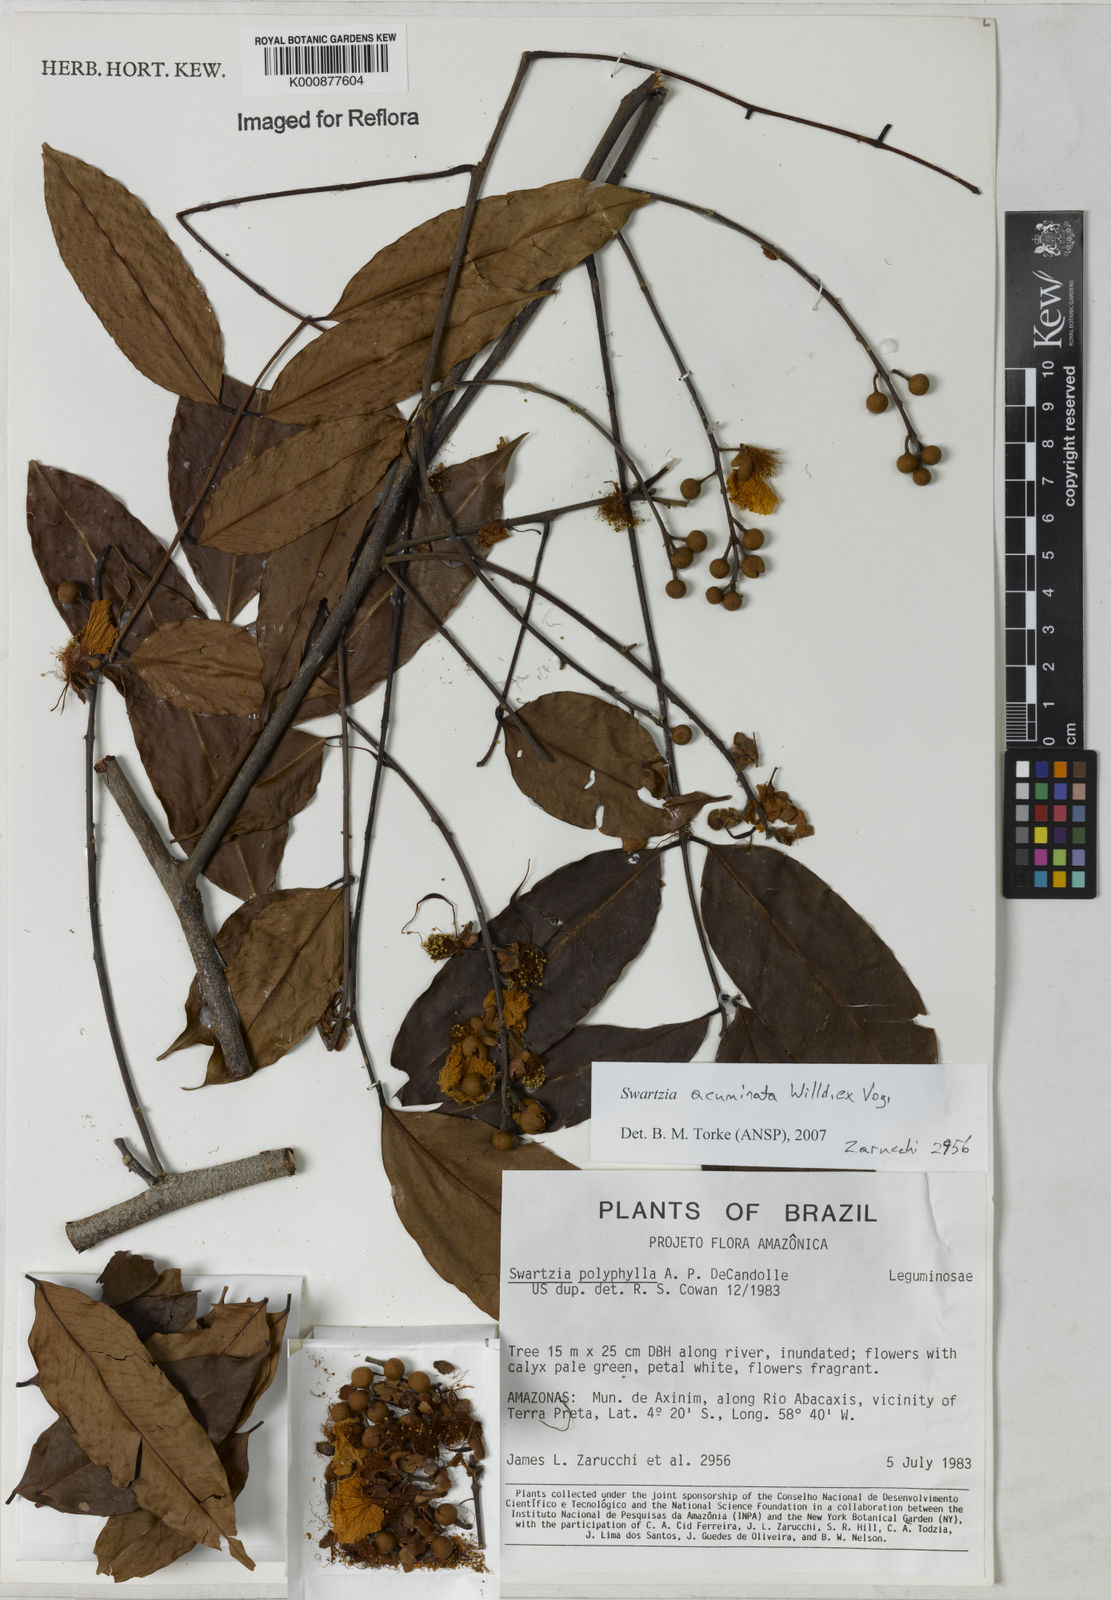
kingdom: Plantae
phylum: Tracheophyta
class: Magnoliopsida
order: Fabales
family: Fabaceae
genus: Swartzia
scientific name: Swartzia acuminata
